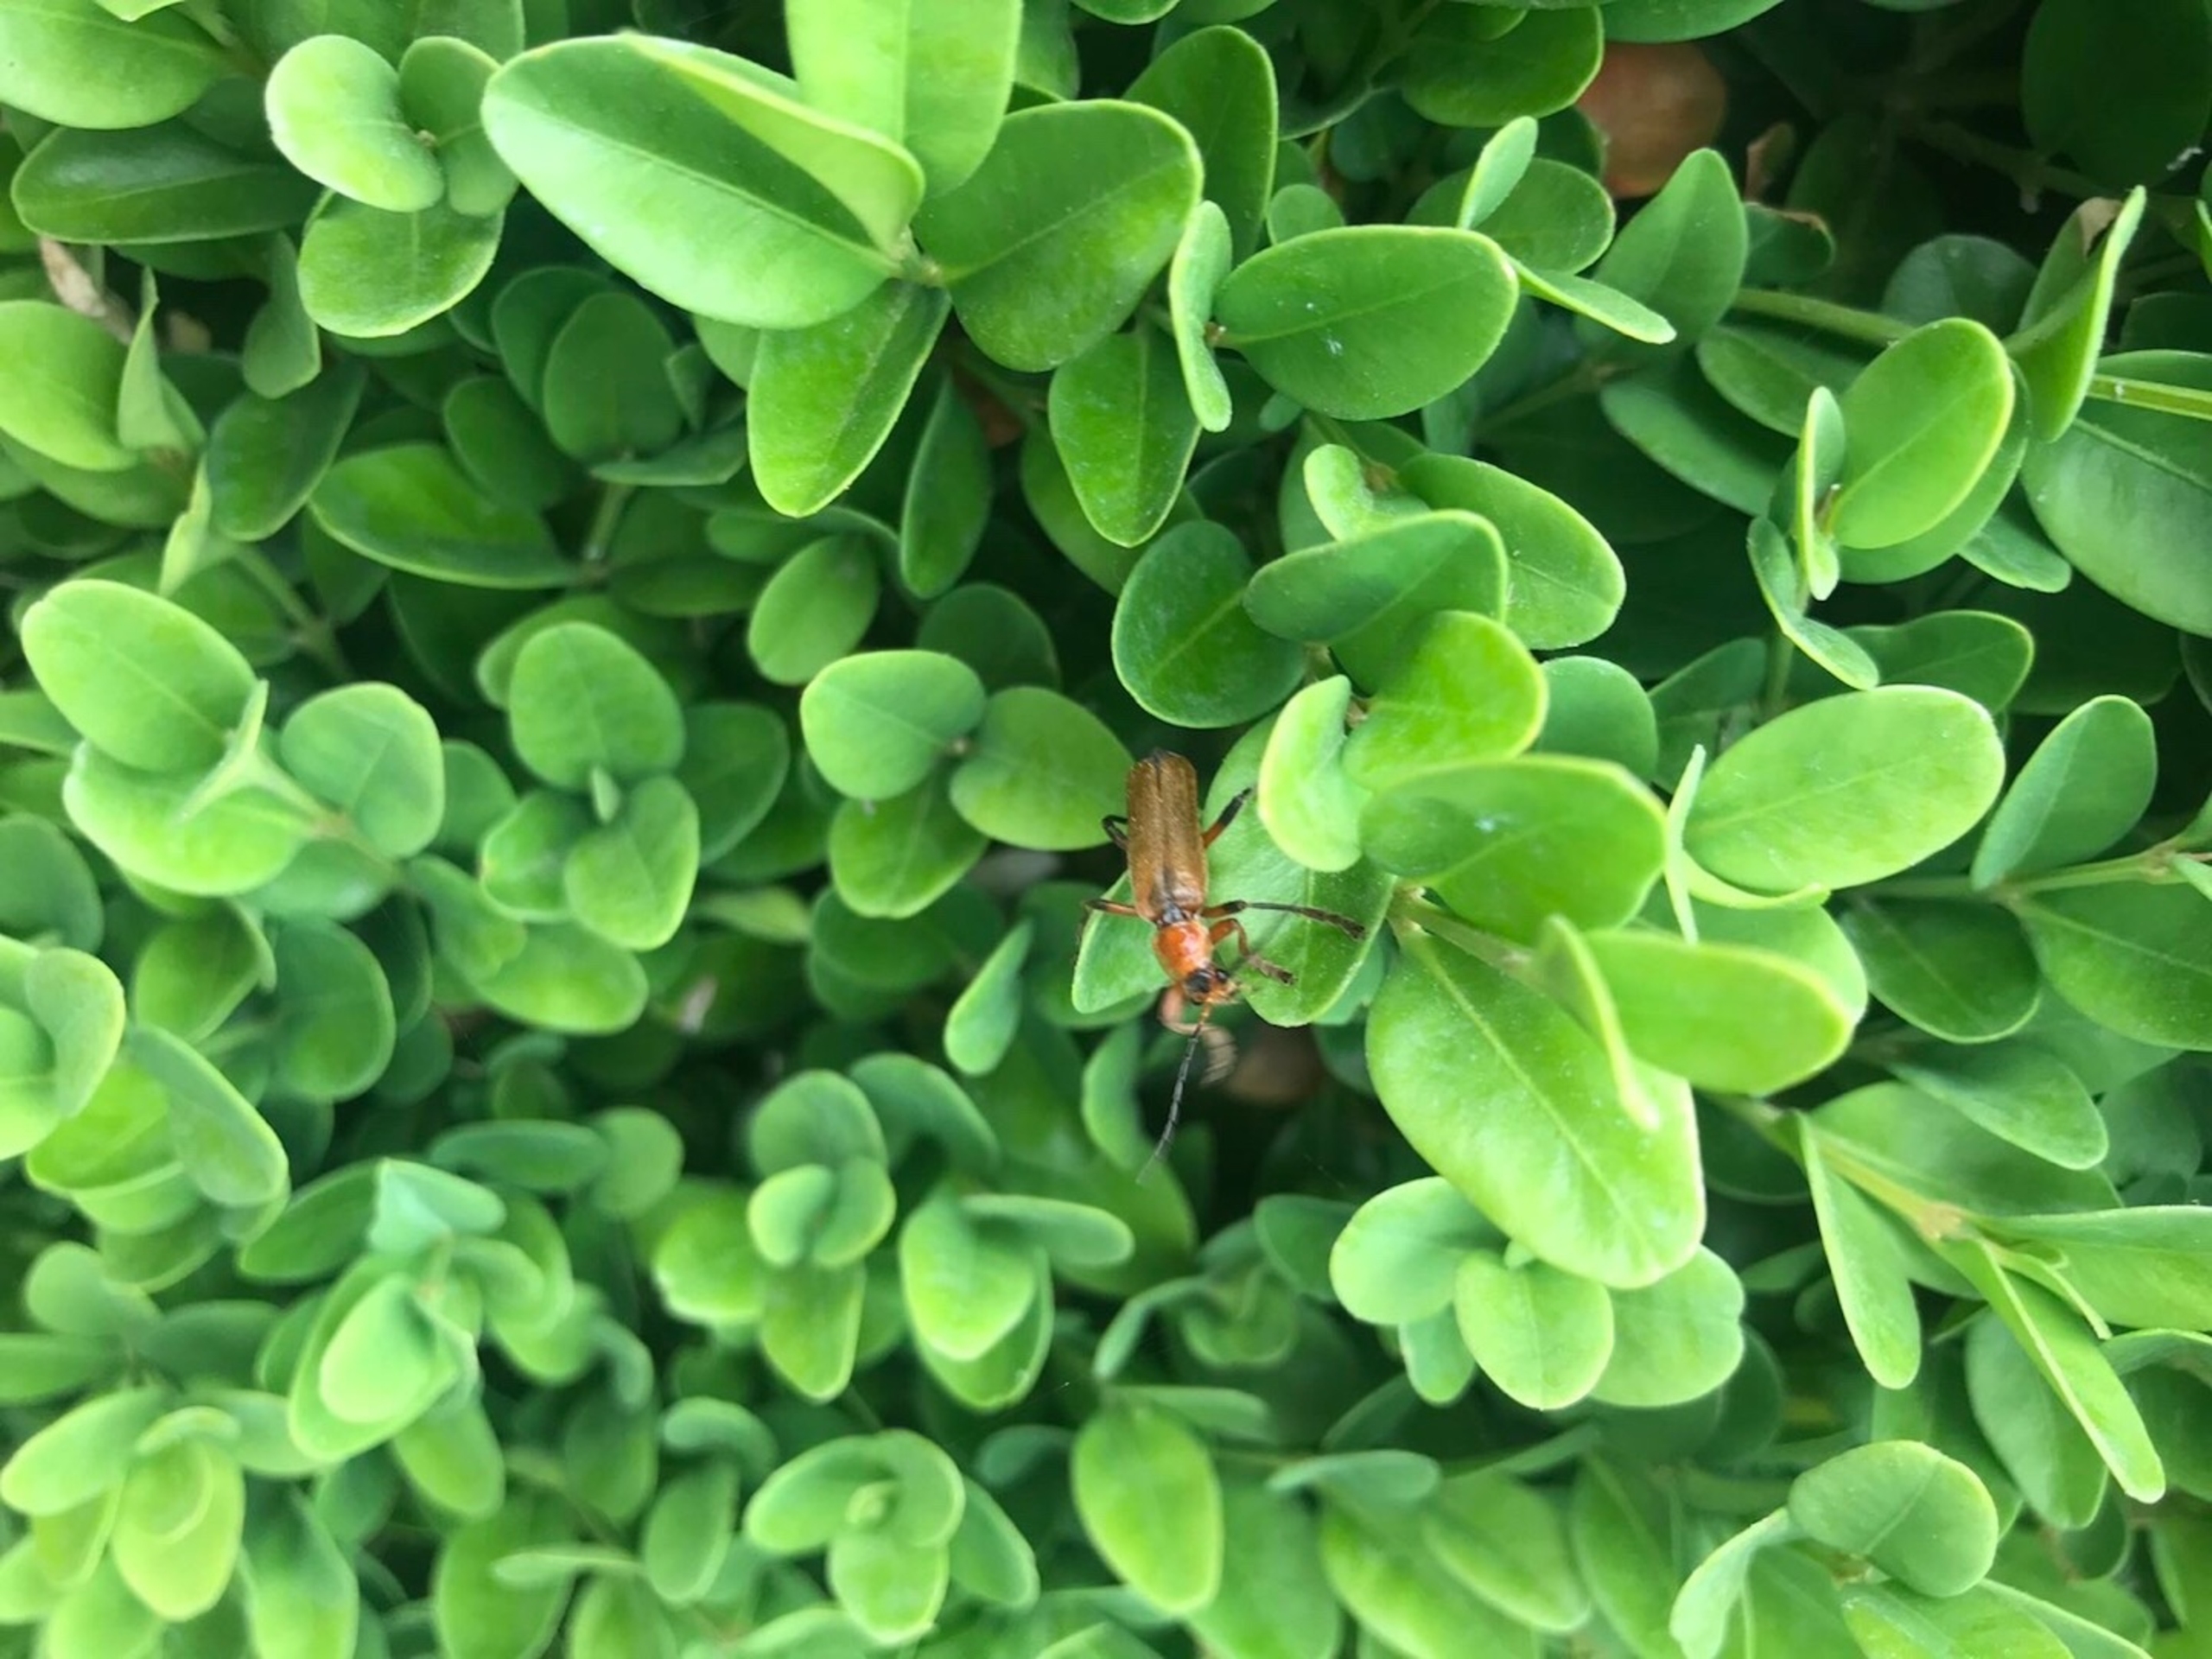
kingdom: Animalia
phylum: Arthropoda
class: Insecta
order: Coleoptera
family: Cantharidae
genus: Cantharis
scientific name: Cantharis livida
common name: Gul blødvinge
